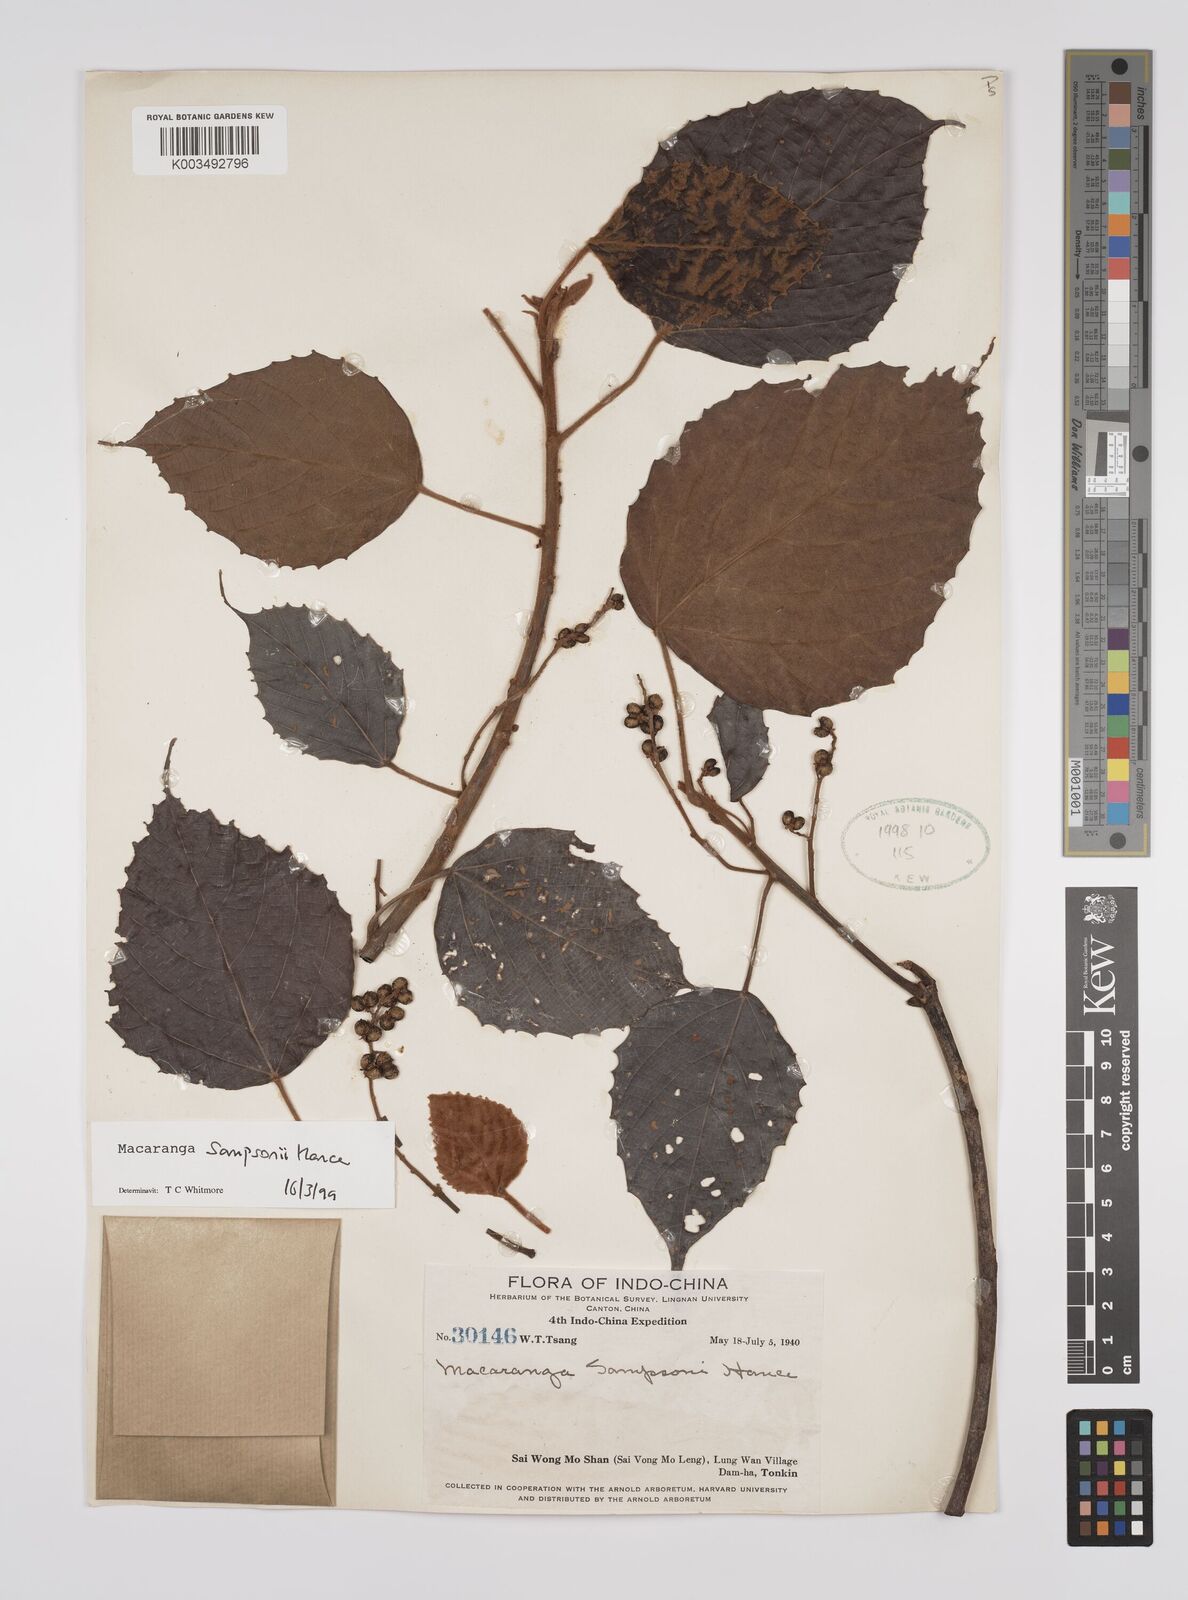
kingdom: Plantae
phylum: Tracheophyta
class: Magnoliopsida
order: Malpighiales
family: Euphorbiaceae
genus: Macaranga
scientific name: Macaranga sampsonii
